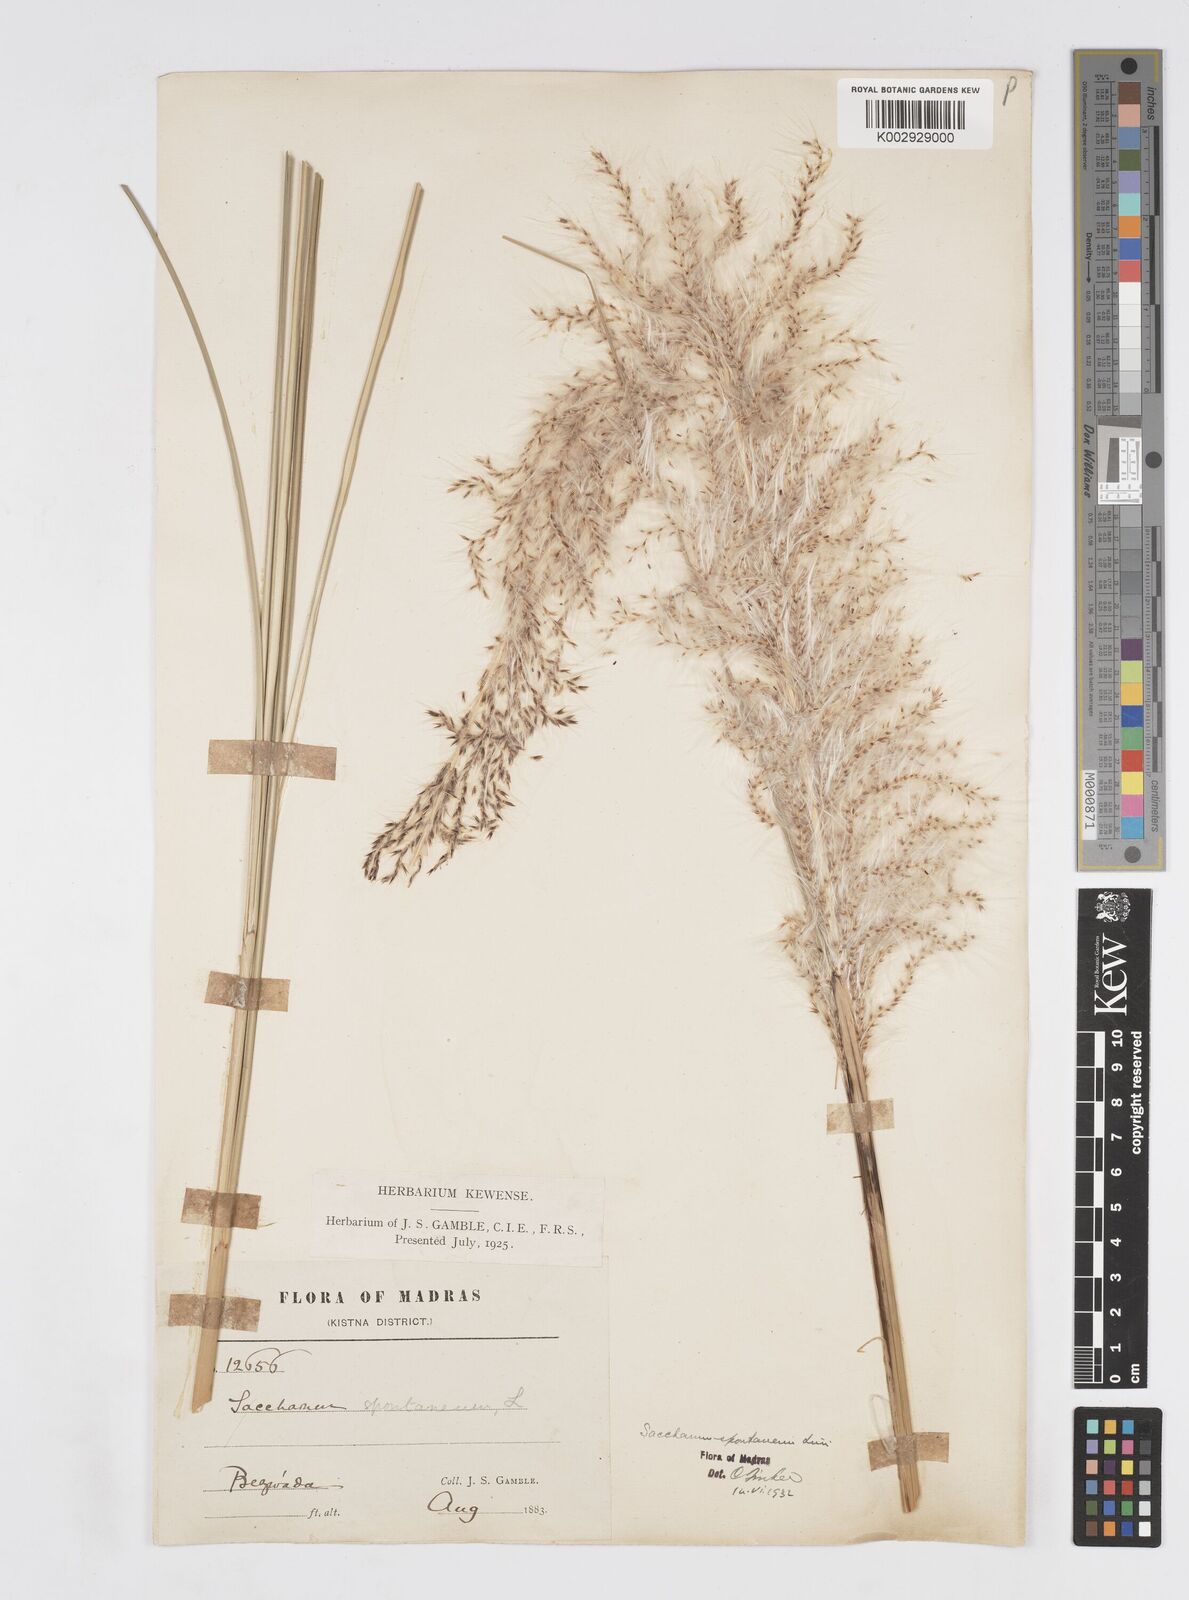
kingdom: Plantae
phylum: Tracheophyta
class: Liliopsida
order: Poales
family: Poaceae
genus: Saccharum
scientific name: Saccharum spontaneum
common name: Wild sugarcane
